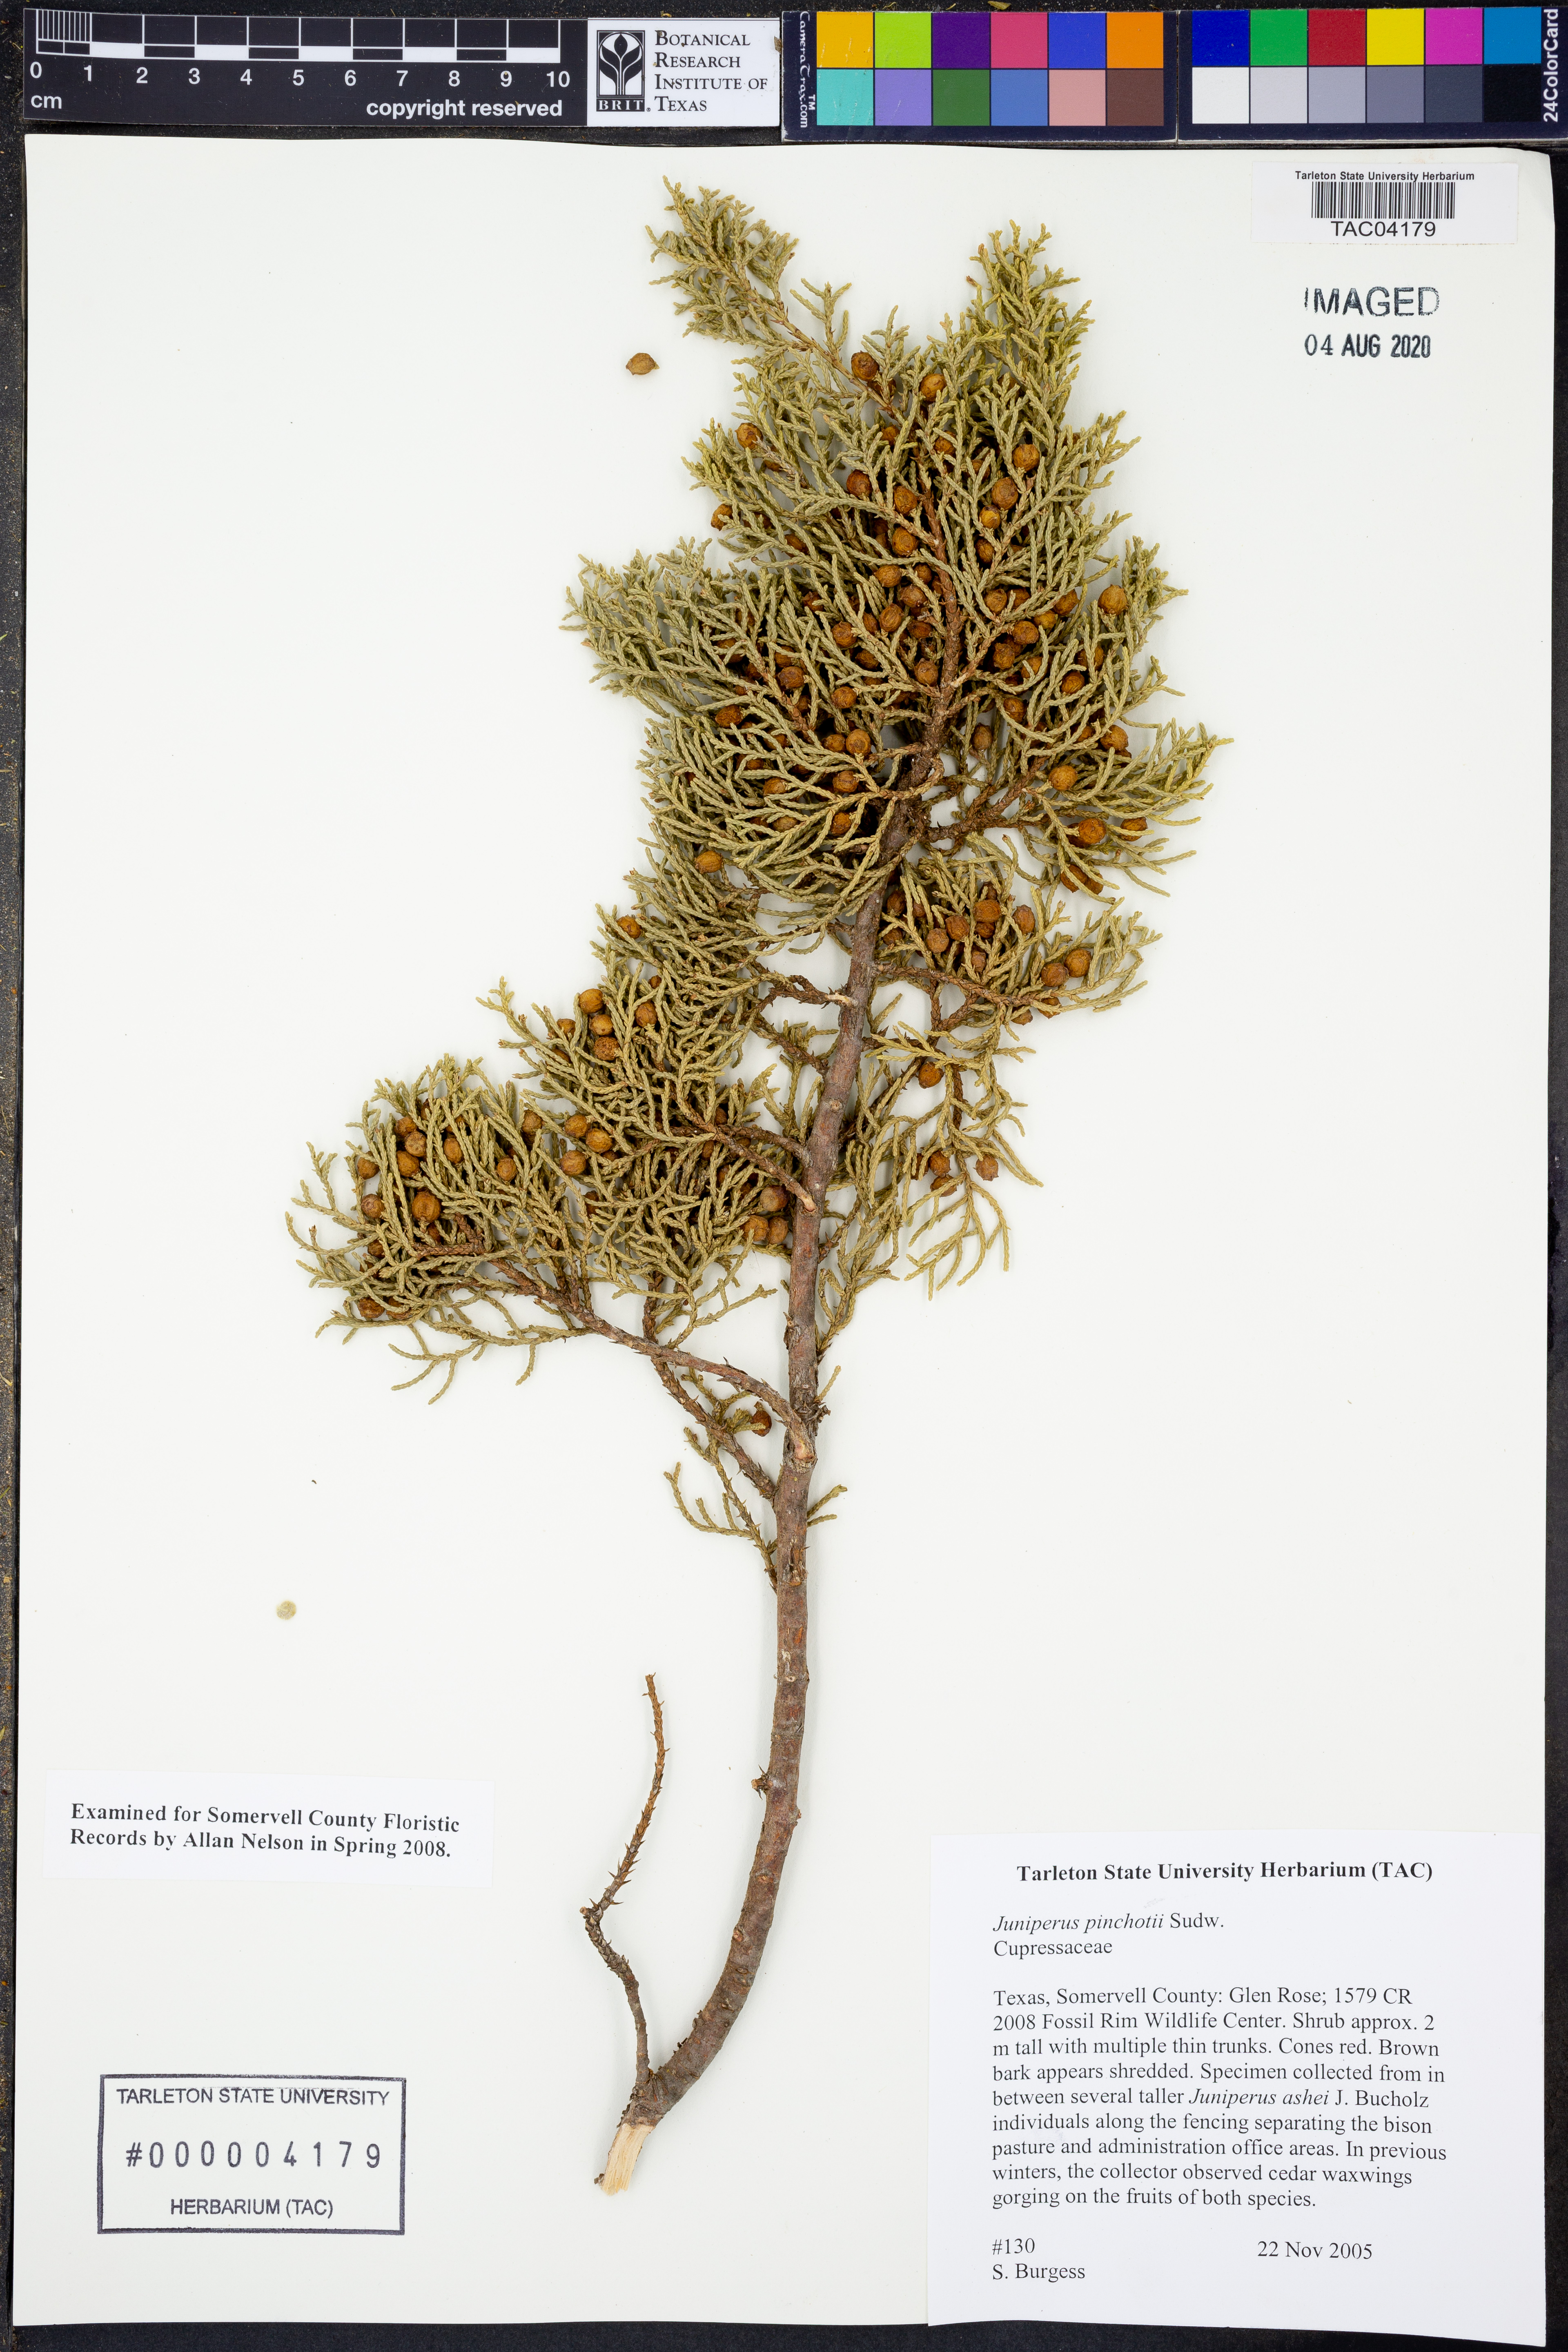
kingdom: Plantae
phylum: Tracheophyta
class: Pinopsida
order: Pinales
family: Cupressaceae
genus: Juniperus
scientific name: Juniperus ashei
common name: Mexican juniper
